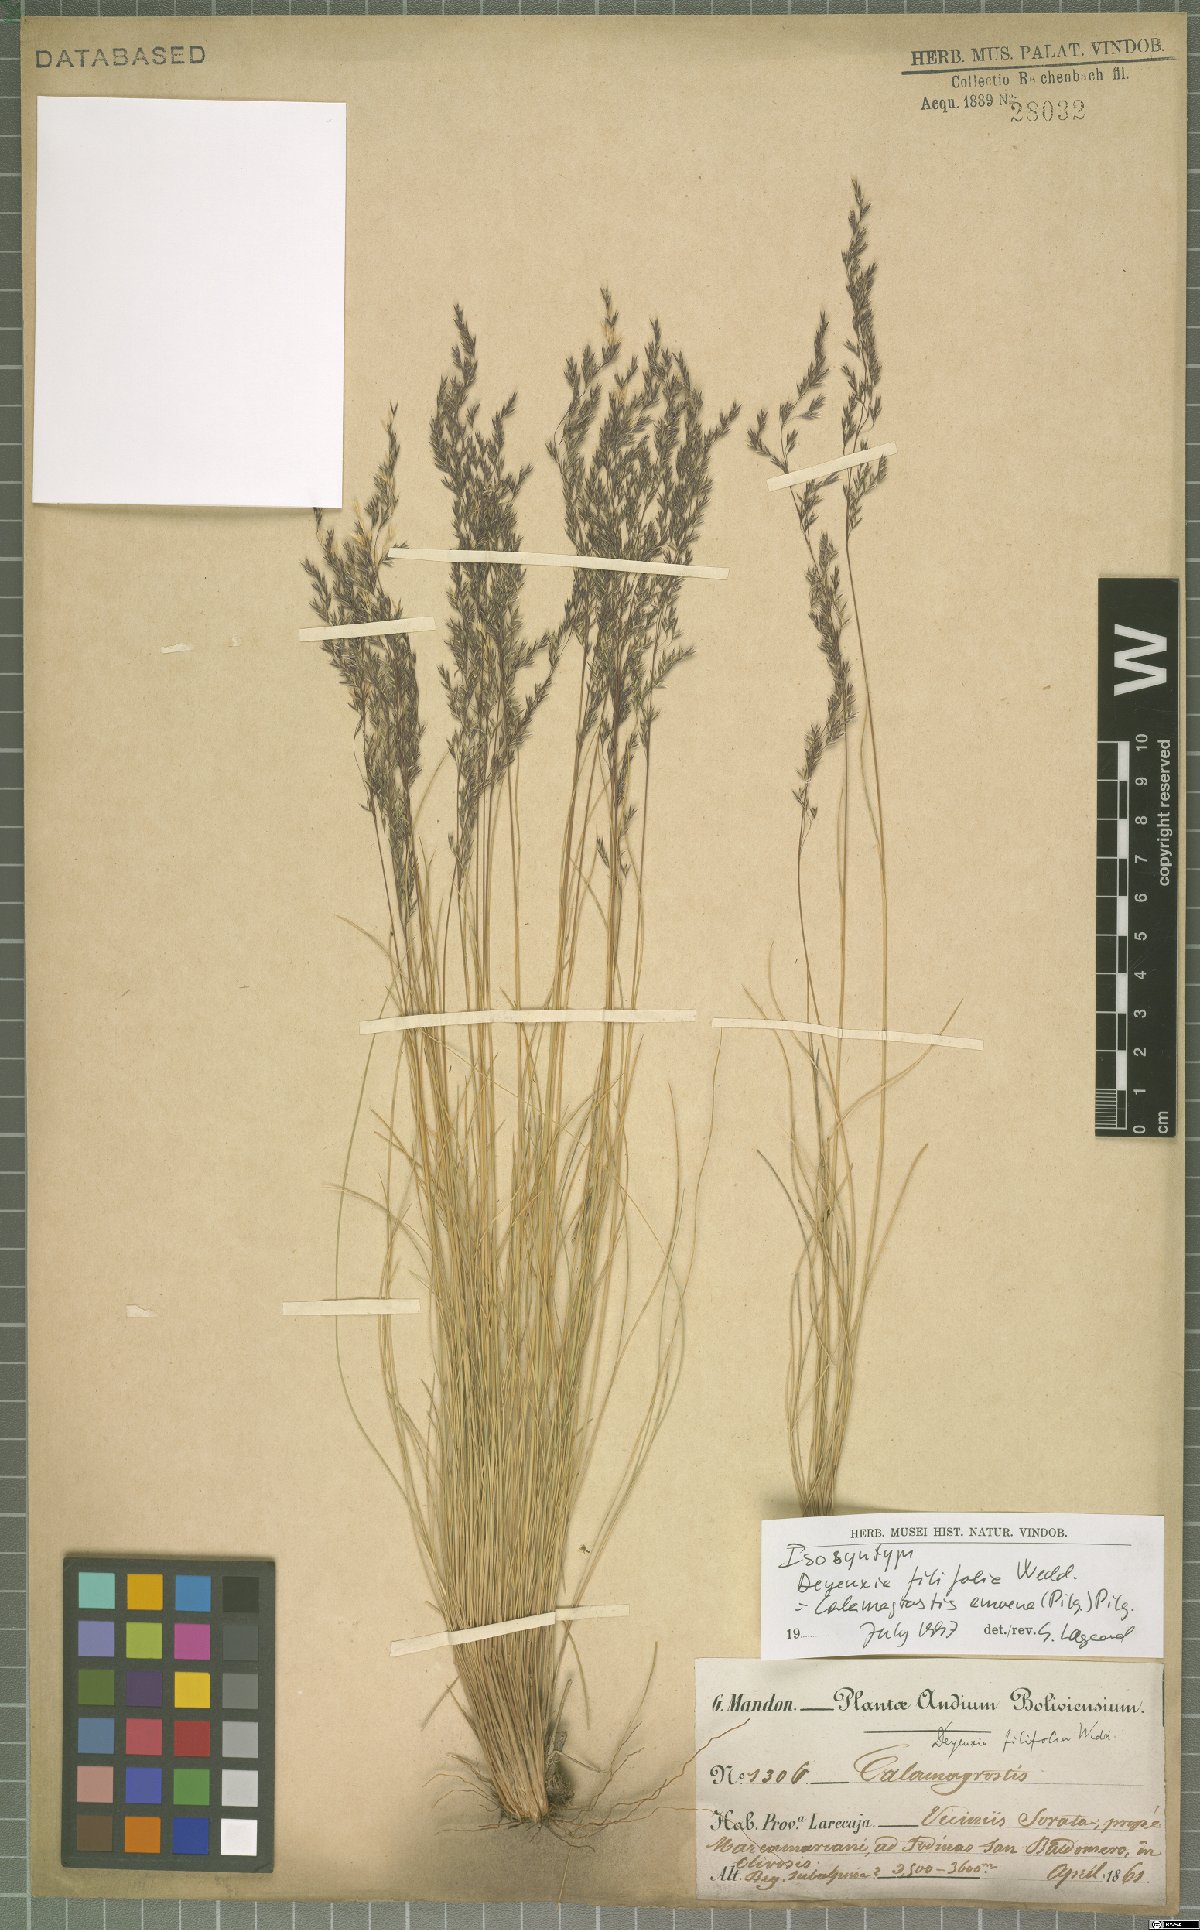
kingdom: Plantae
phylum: Tracheophyta
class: Liliopsida
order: Poales
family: Poaceae
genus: Cinnagrostis
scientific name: Cinnagrostis filifolia
